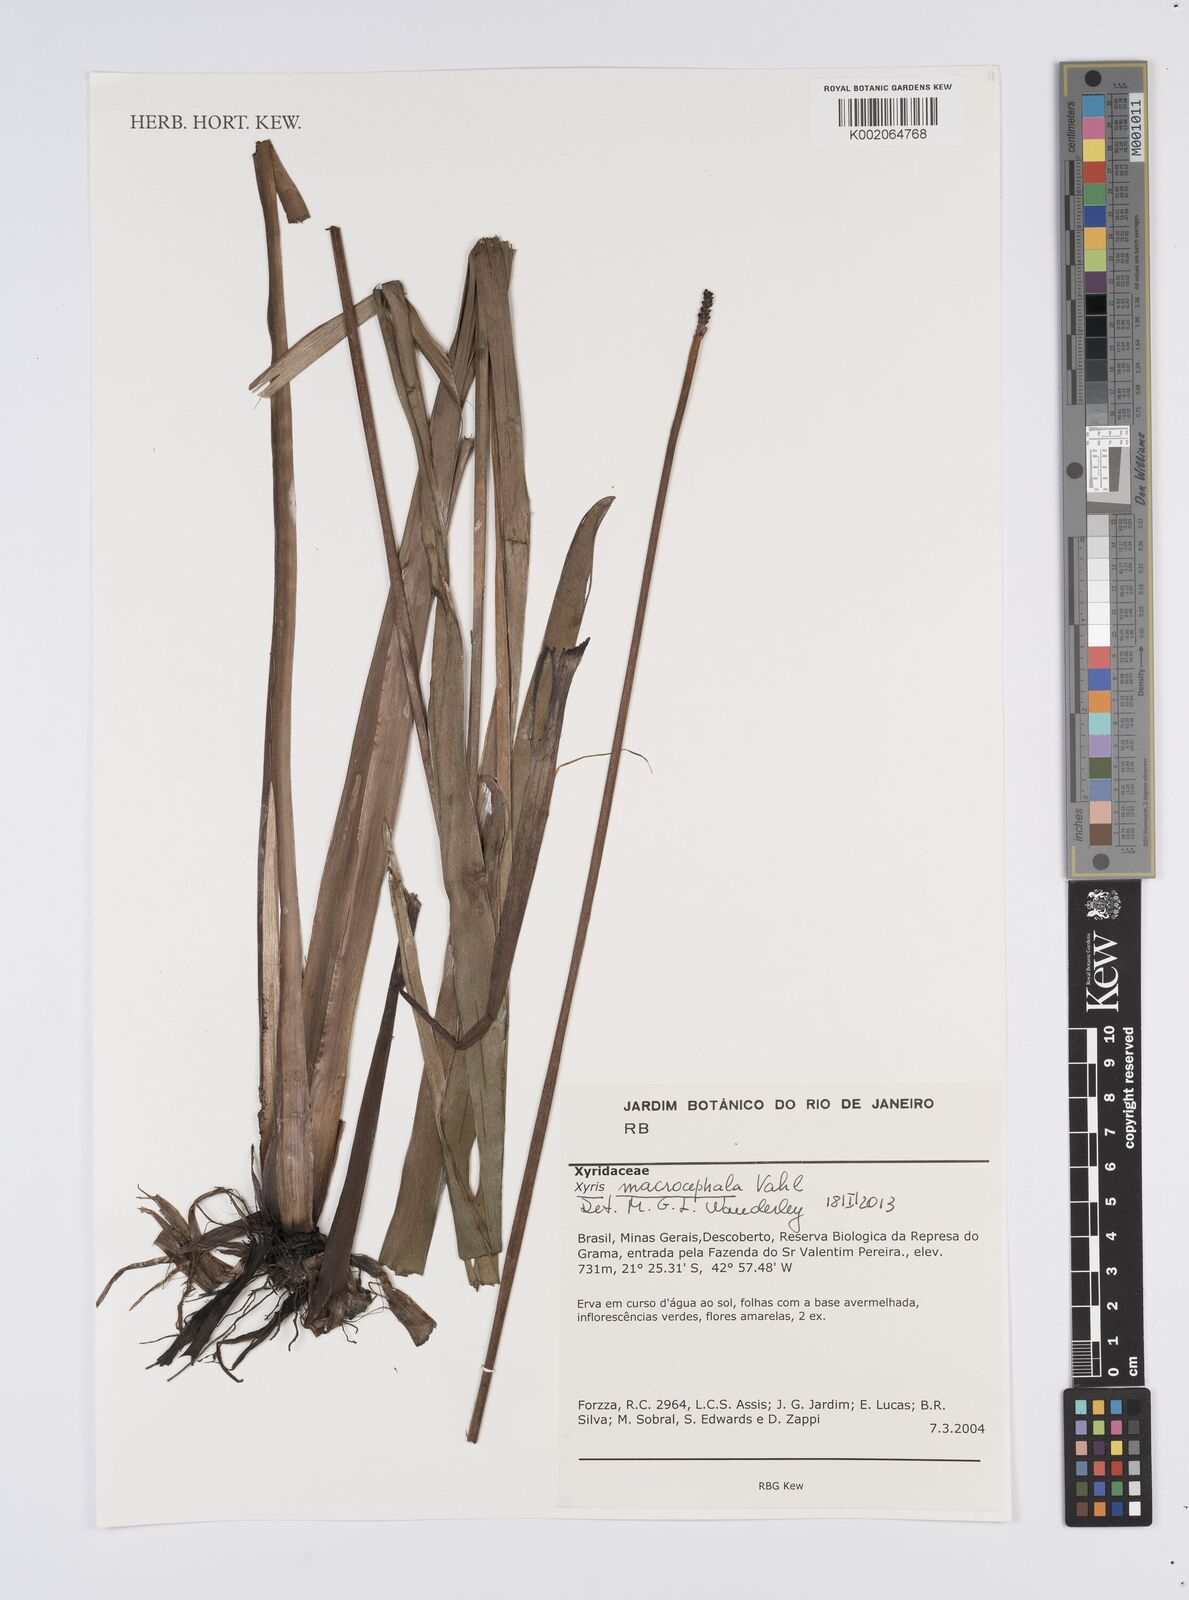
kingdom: Plantae
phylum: Tracheophyta
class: Liliopsida
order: Poales
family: Xyridaceae
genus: Xyris
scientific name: Xyris jupicai
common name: Richard's yelloweyed grass
